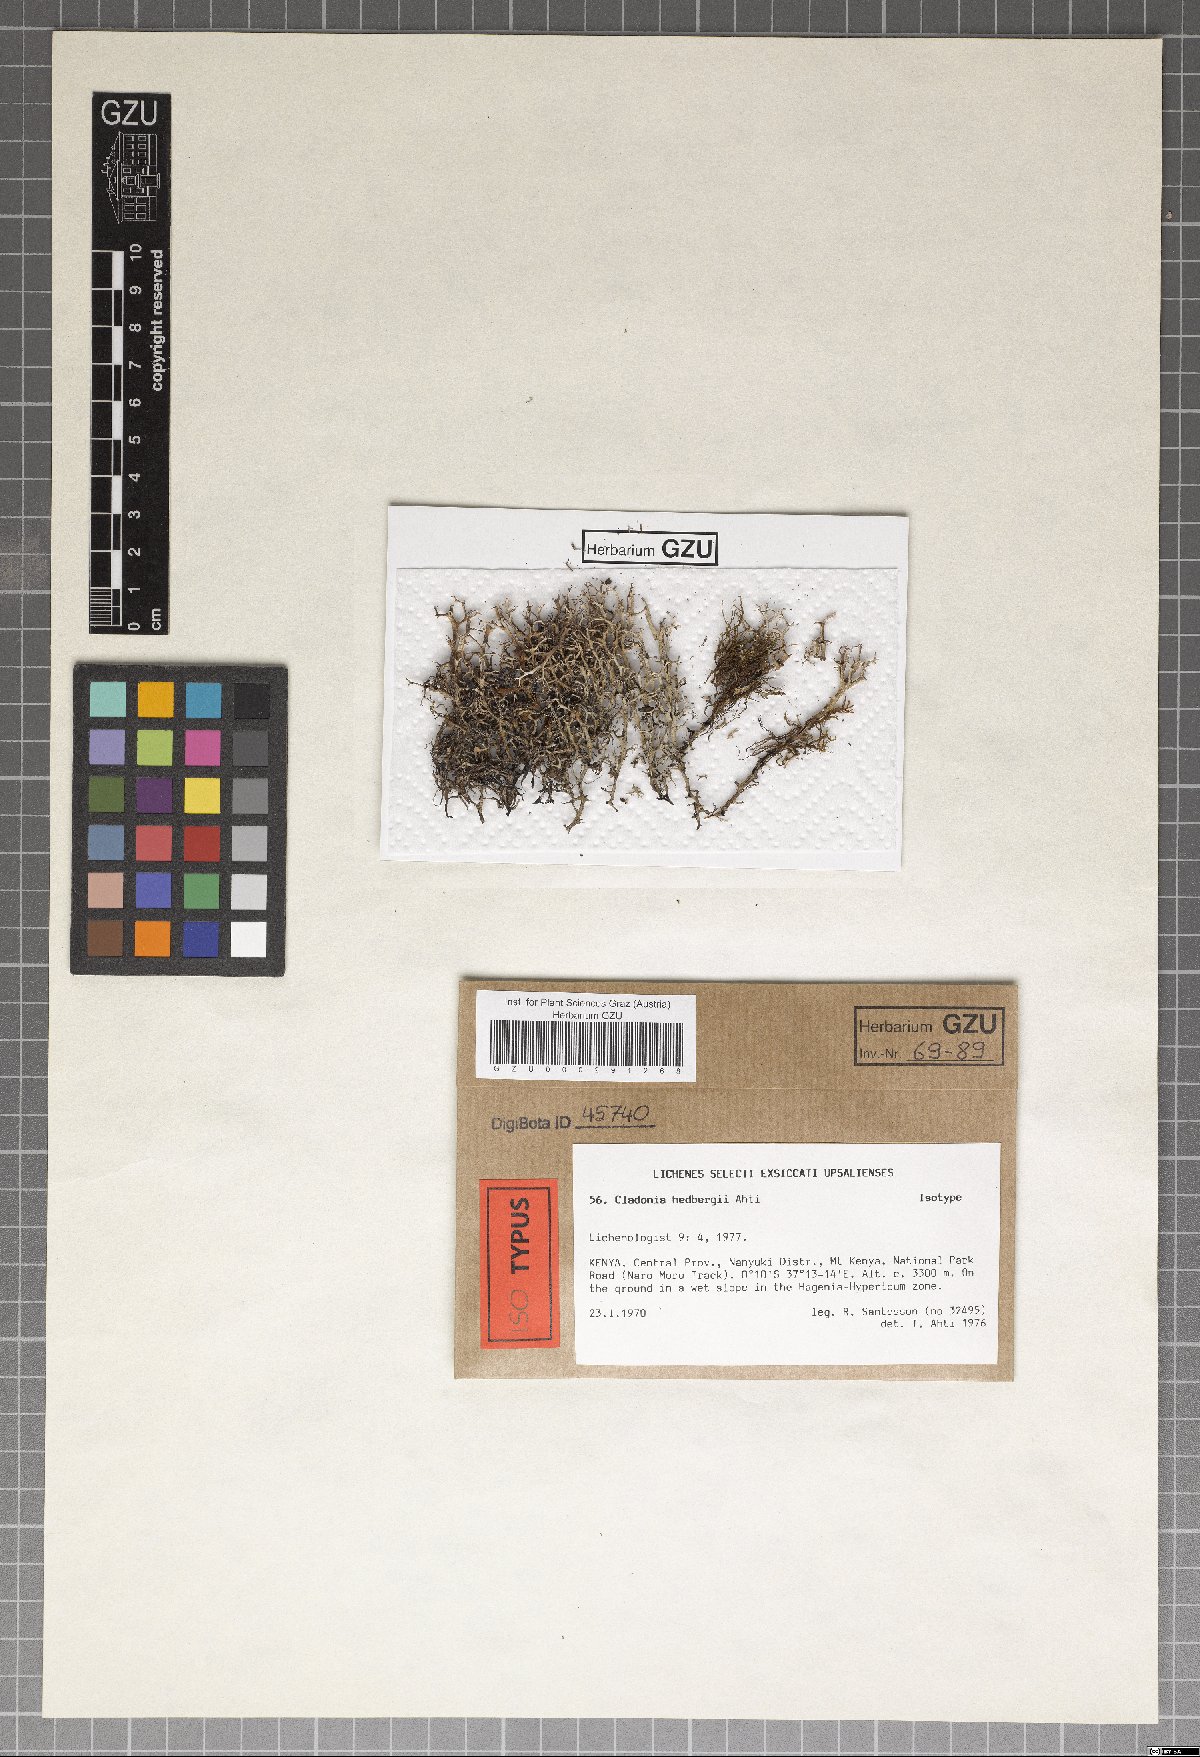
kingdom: Plantae
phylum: Marchantiophyta
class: Marchantiopsida
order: Marchantiales
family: Monocleaceae
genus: Monoclea
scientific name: Monoclea
